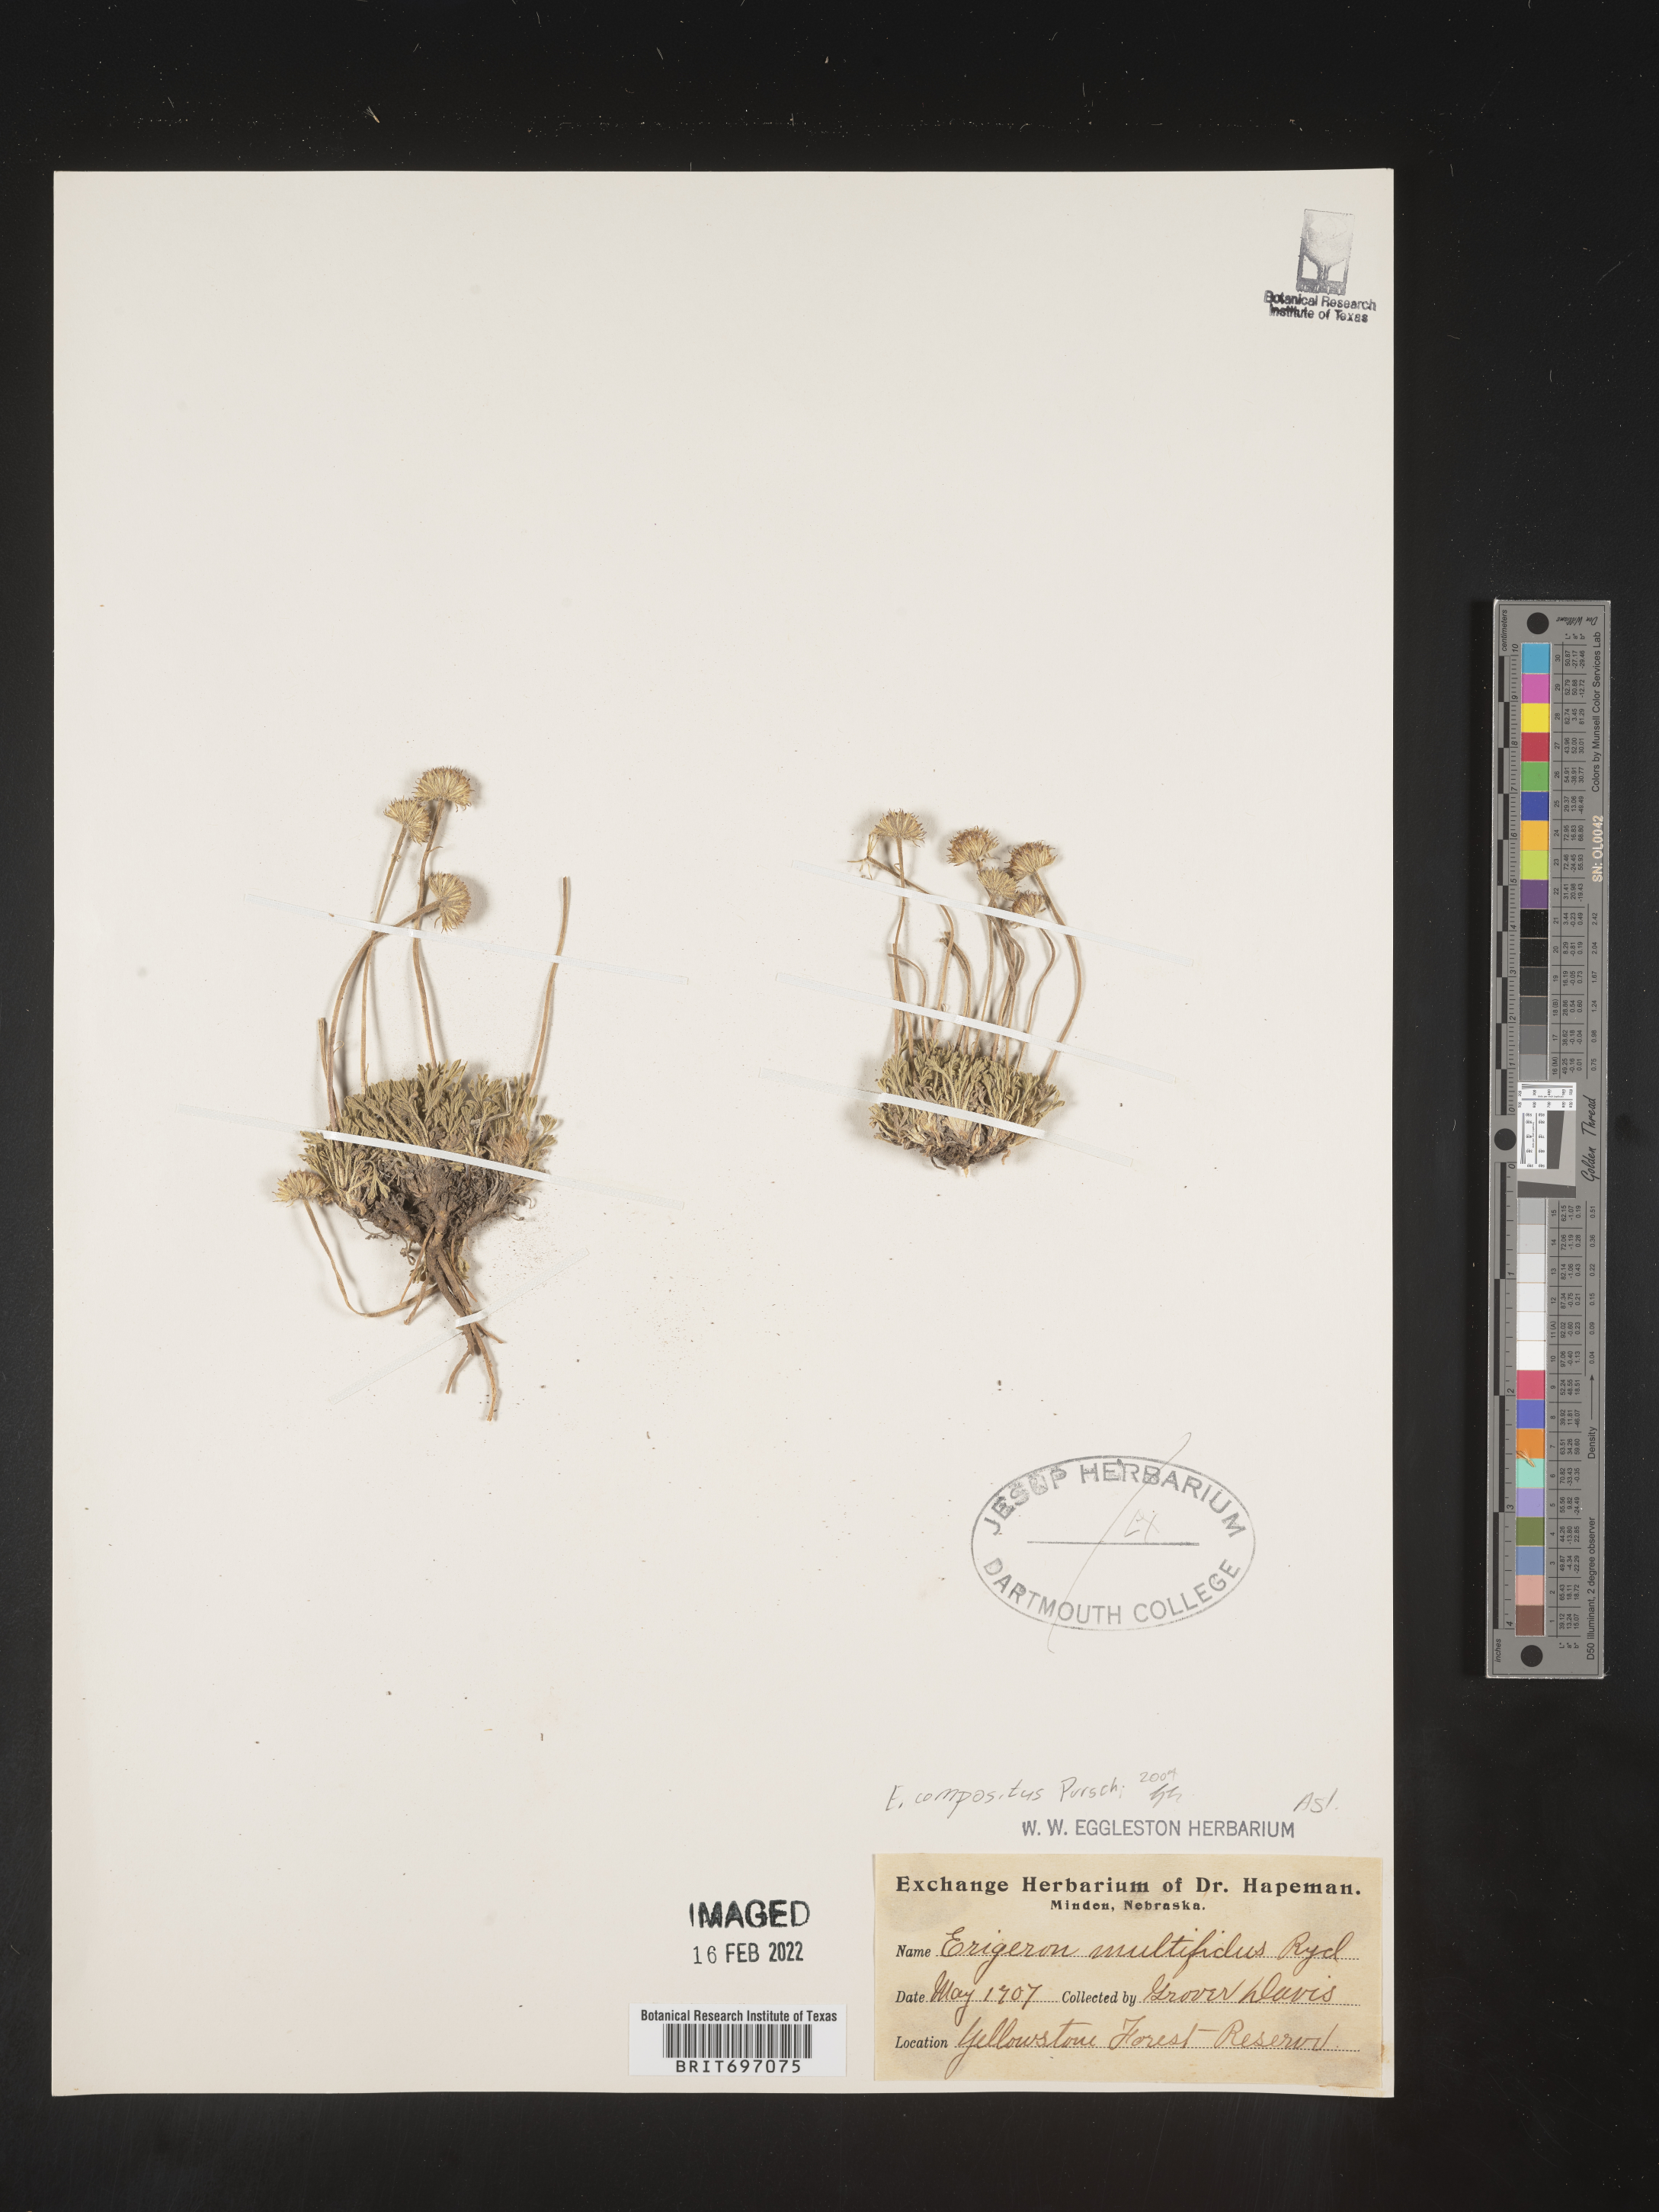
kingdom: Plantae
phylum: Tracheophyta
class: Magnoliopsida
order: Asterales
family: Asteraceae
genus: Erigeron
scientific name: Erigeron compositus
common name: Dwarf mountain fleabane
